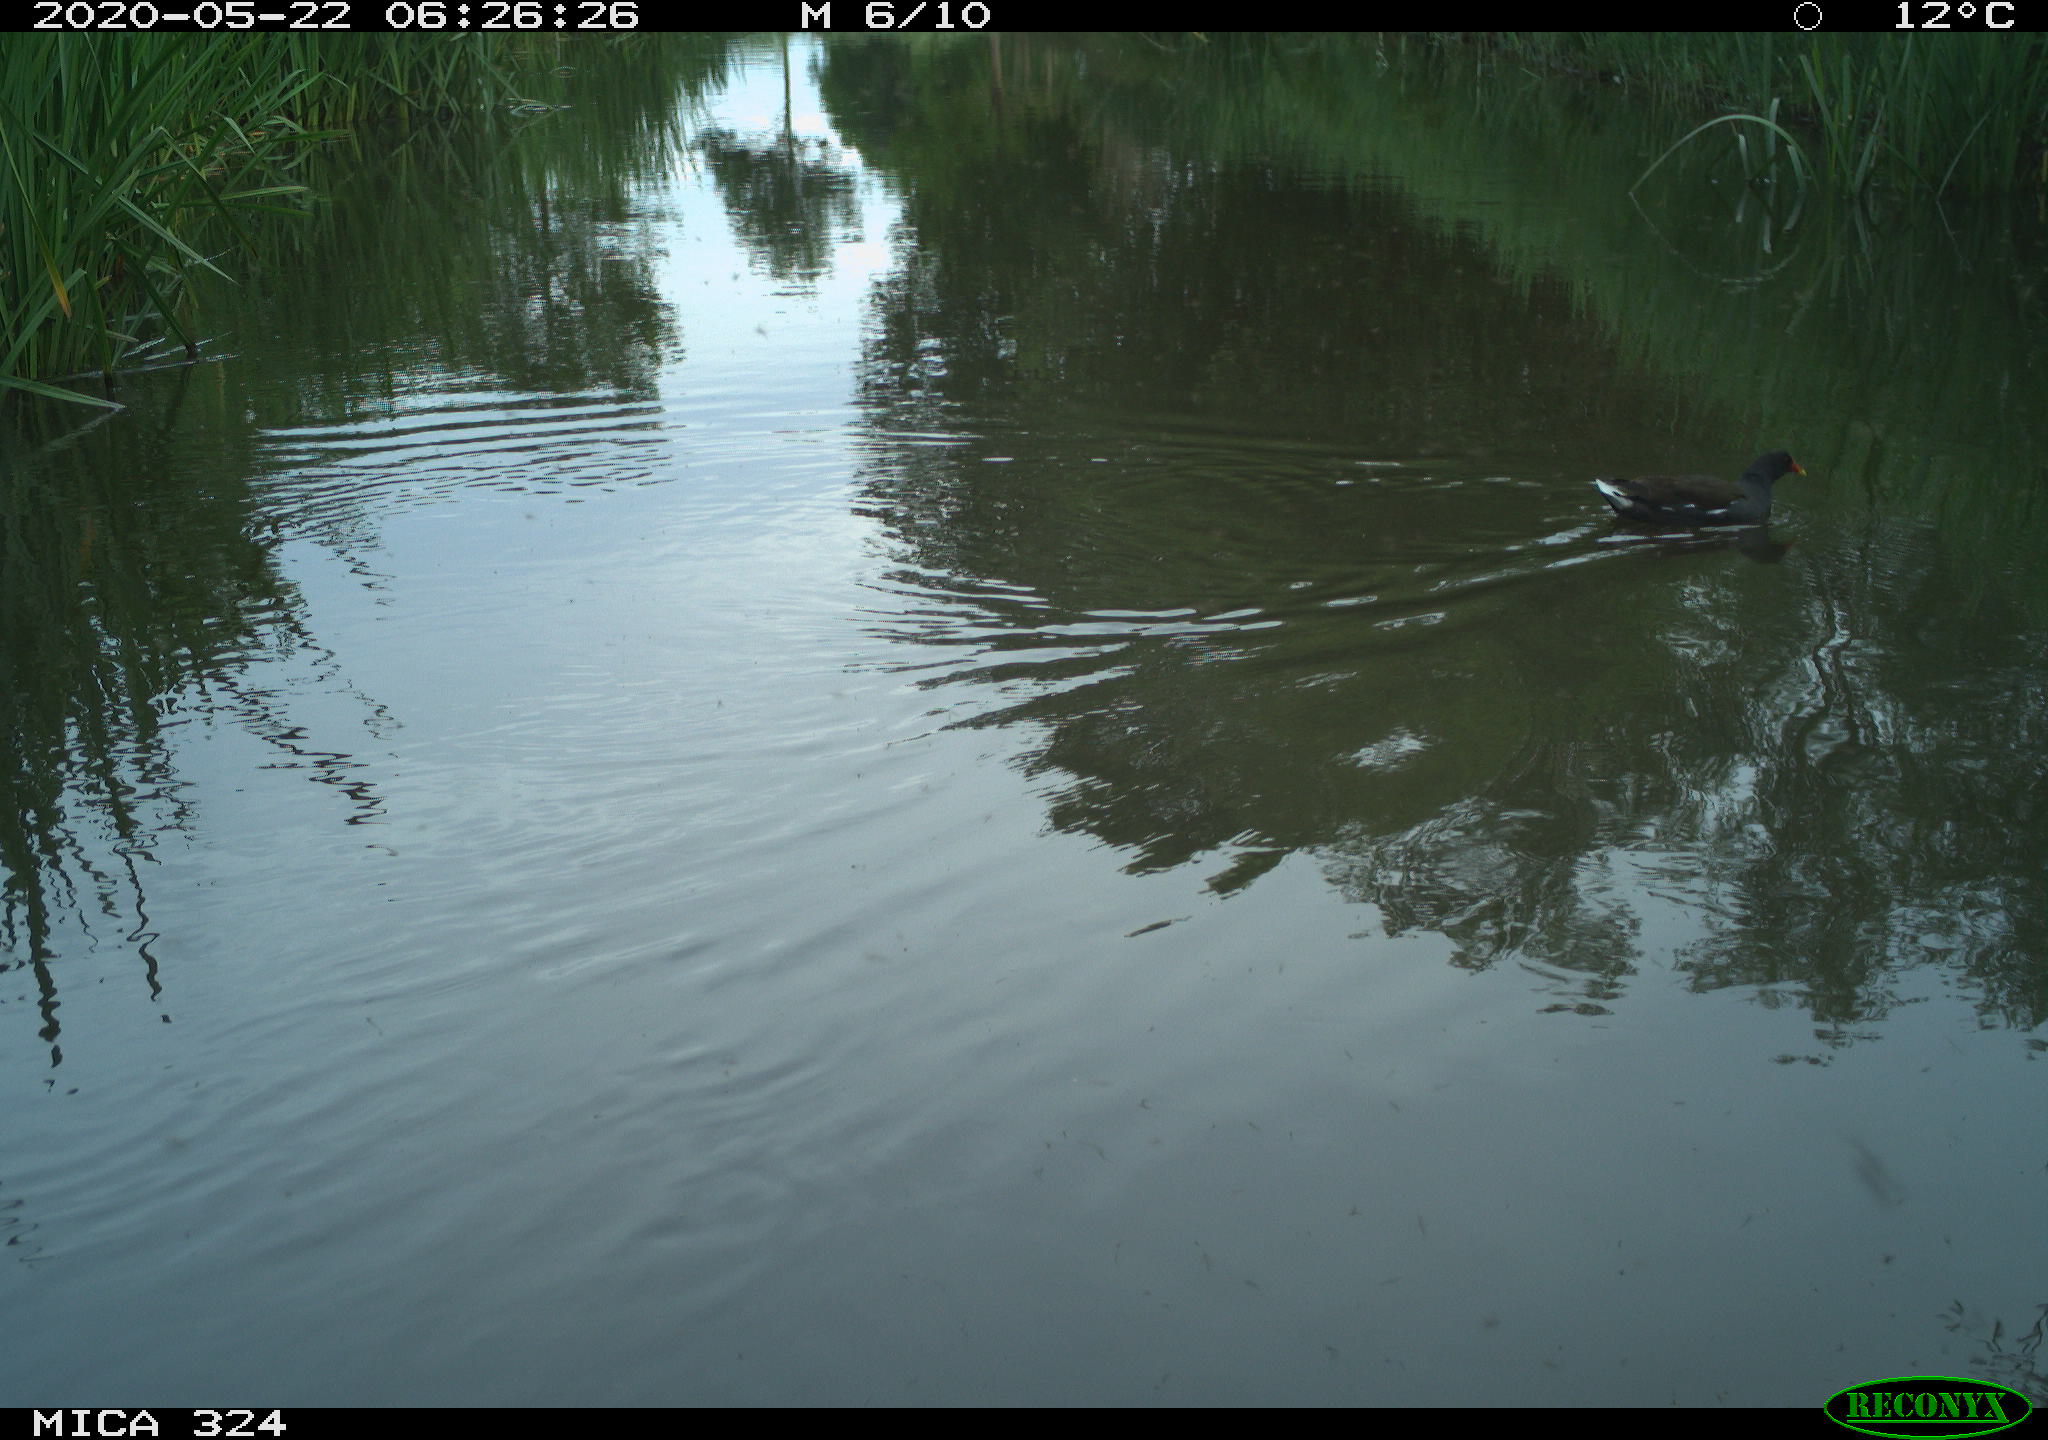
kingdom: Animalia
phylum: Chordata
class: Aves
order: Gruiformes
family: Rallidae
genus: Gallinula
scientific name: Gallinula chloropus
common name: Common moorhen
